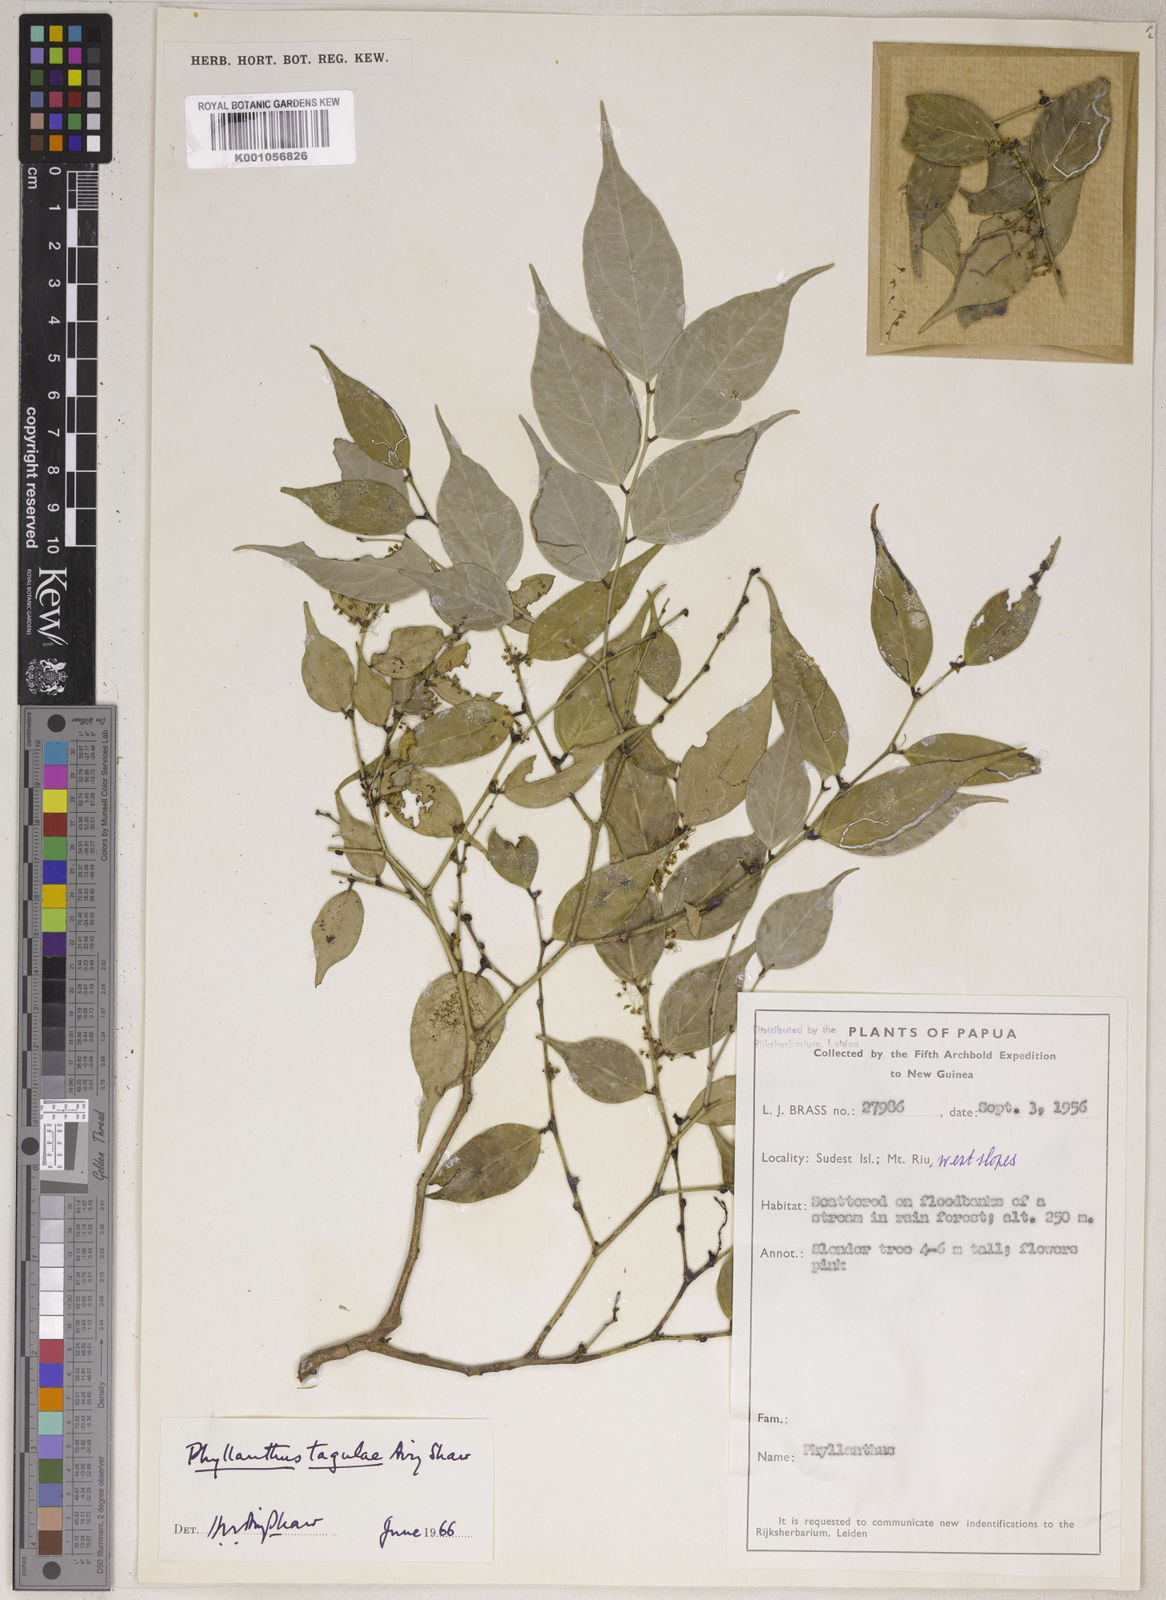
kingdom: Plantae
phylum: Tracheophyta
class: Magnoliopsida
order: Malpighiales
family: Phyllanthaceae
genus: Phyllanthus
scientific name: Phyllanthus tagulae
